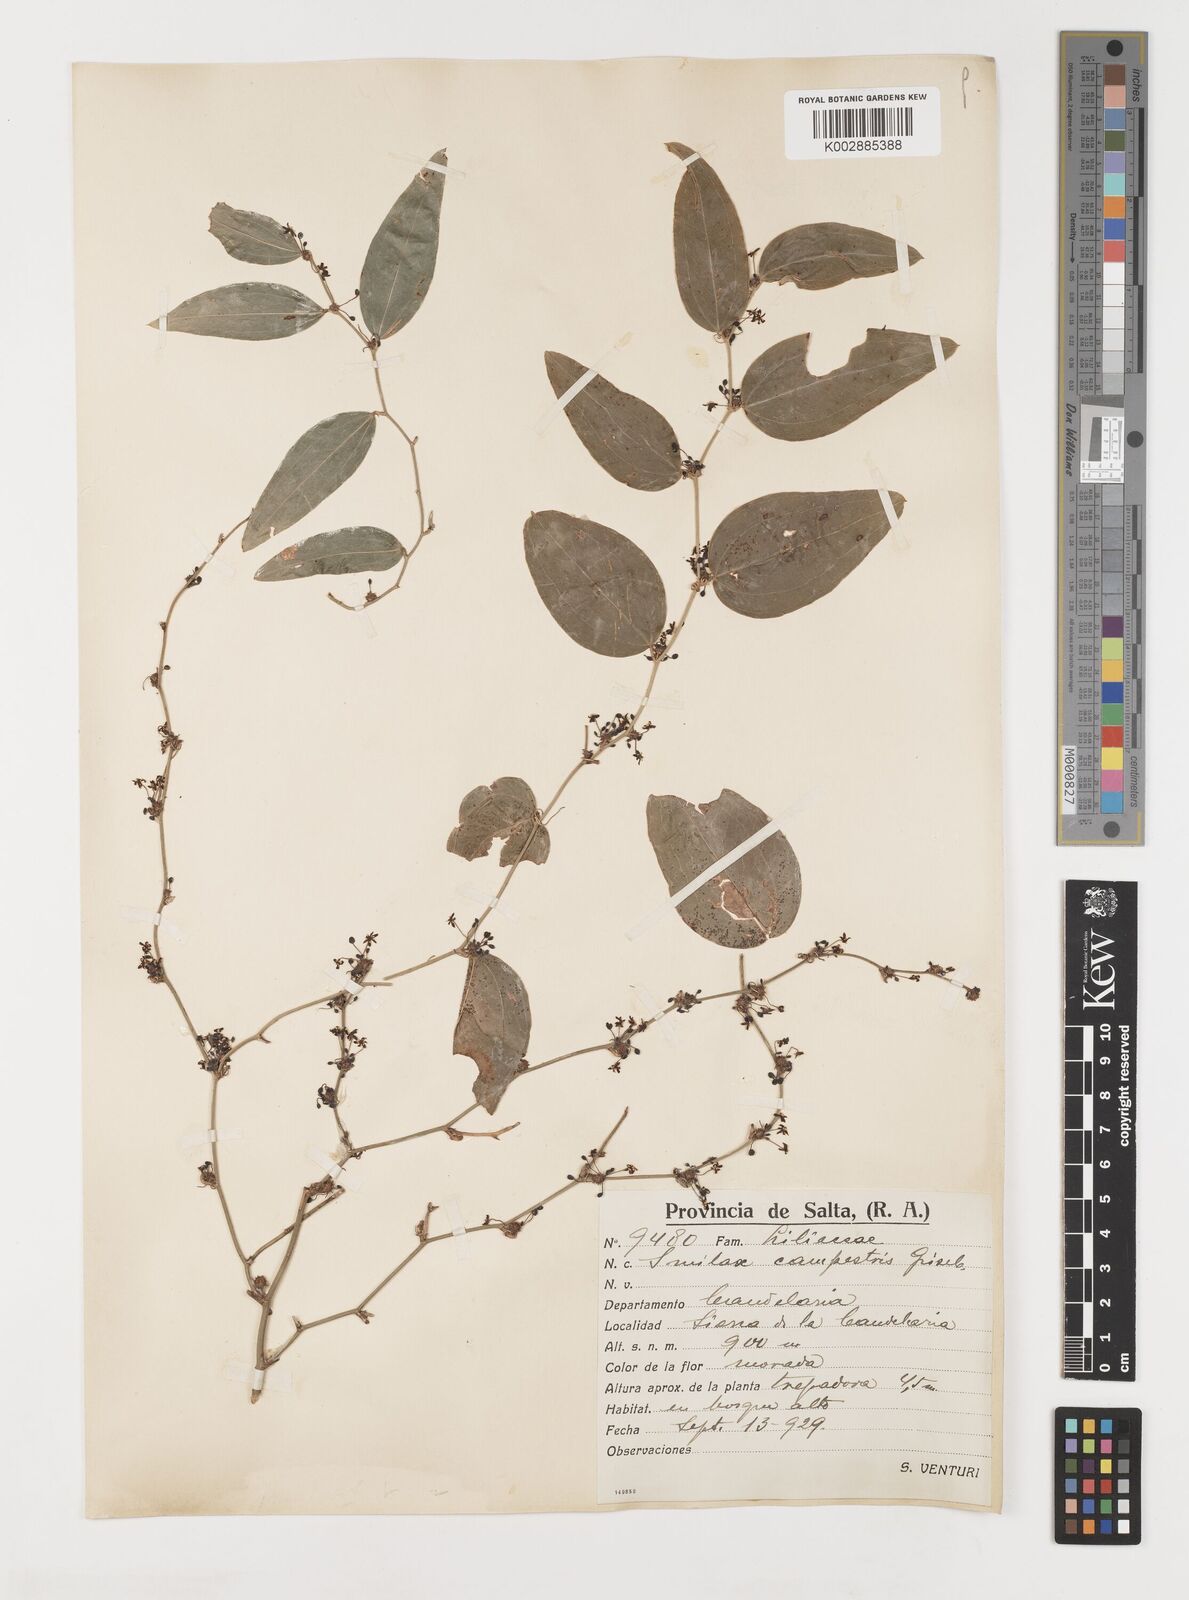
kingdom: Plantae
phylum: Tracheophyta
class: Liliopsida
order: Liliales
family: Smilacaceae
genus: Smilax
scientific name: Smilax campestris
